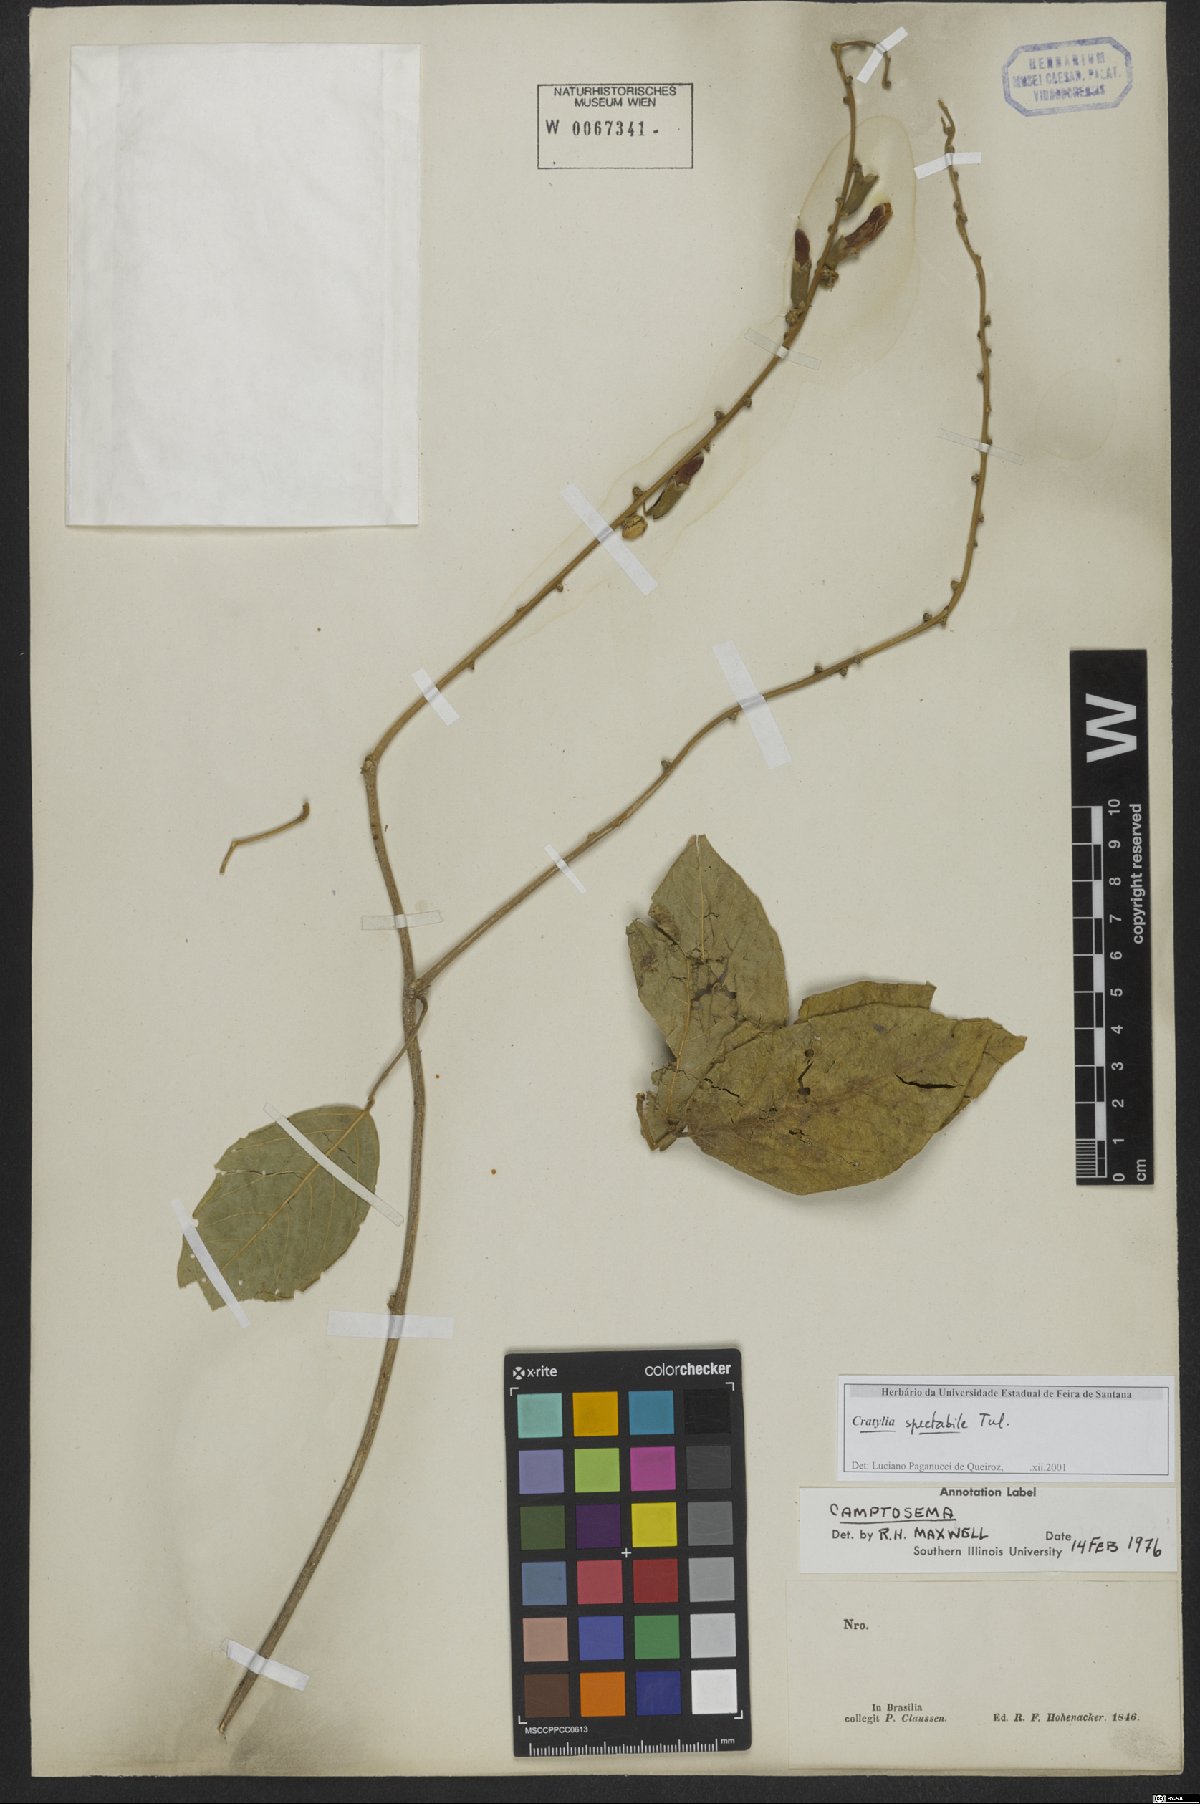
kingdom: Plantae
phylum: Tracheophyta
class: Magnoliopsida
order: Fabales
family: Fabaceae
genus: Camptosema
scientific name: Camptosema spectabile
